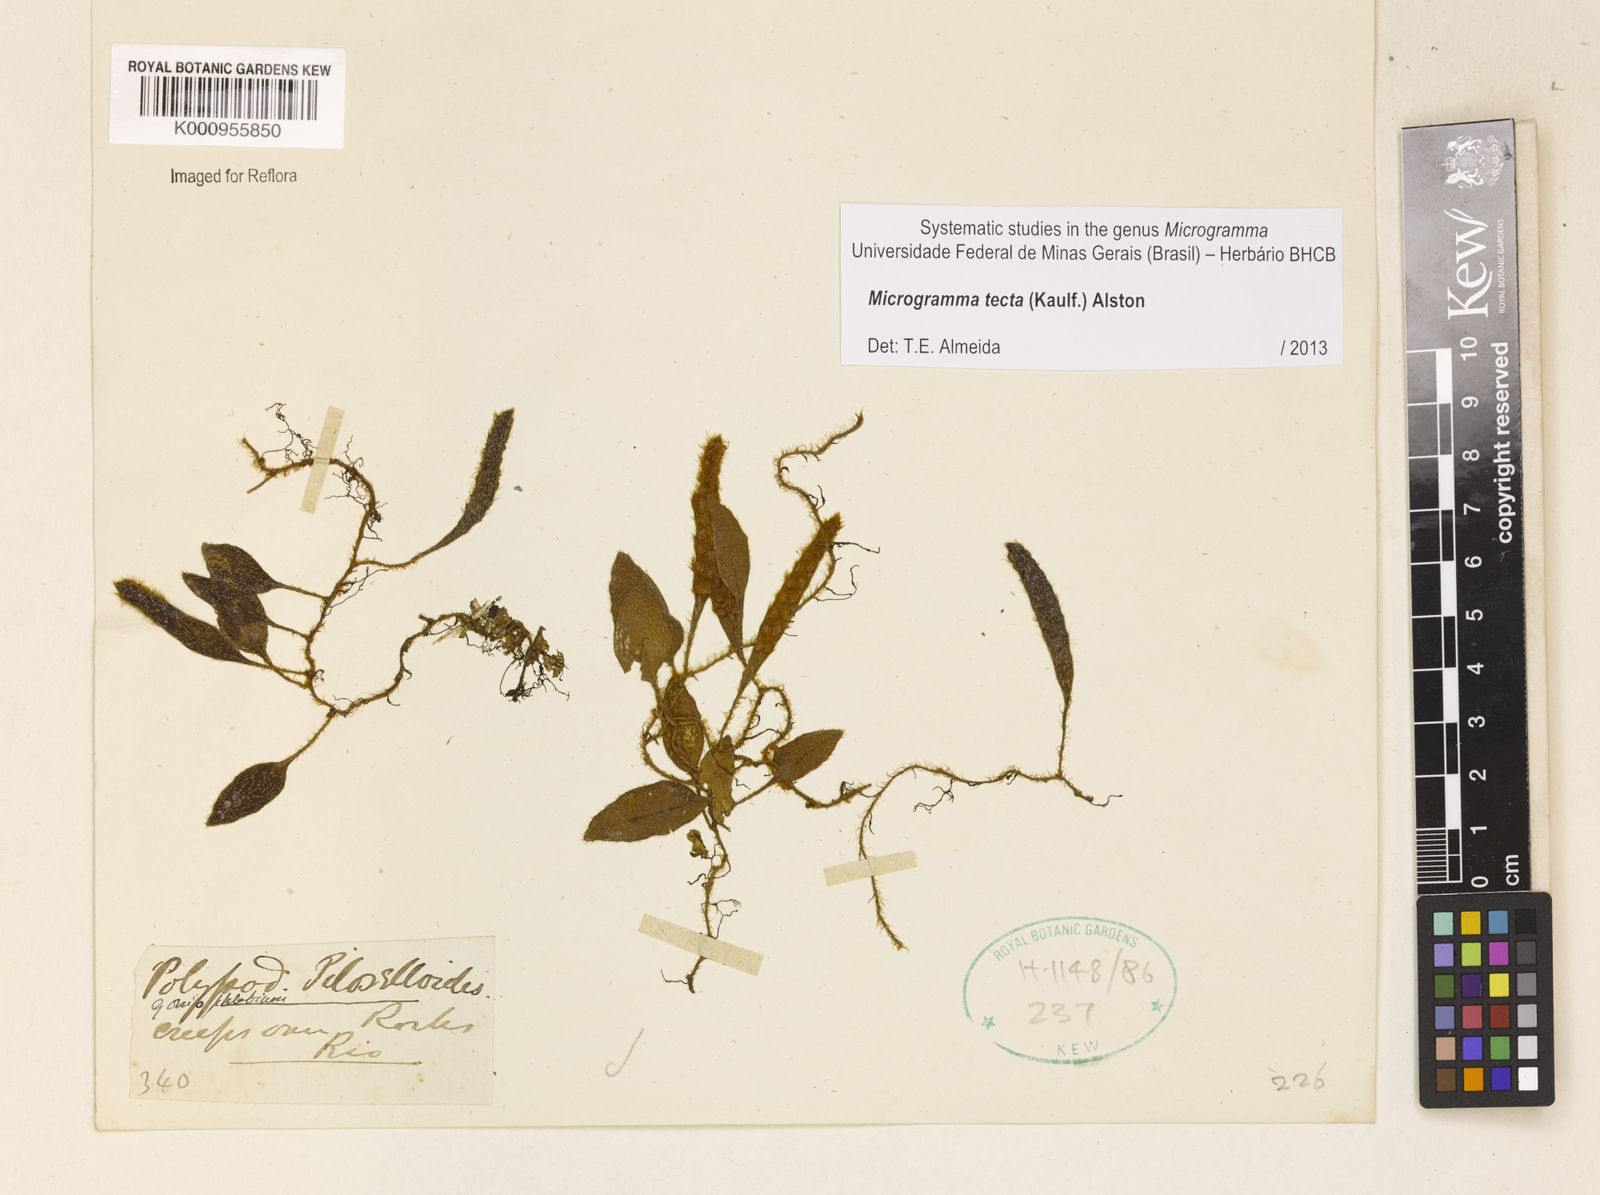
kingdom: Plantae
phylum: Tracheophyta
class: Polypodiopsida
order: Polypodiales
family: Polypodiaceae
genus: Microgramma
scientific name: Microgramma tecta
